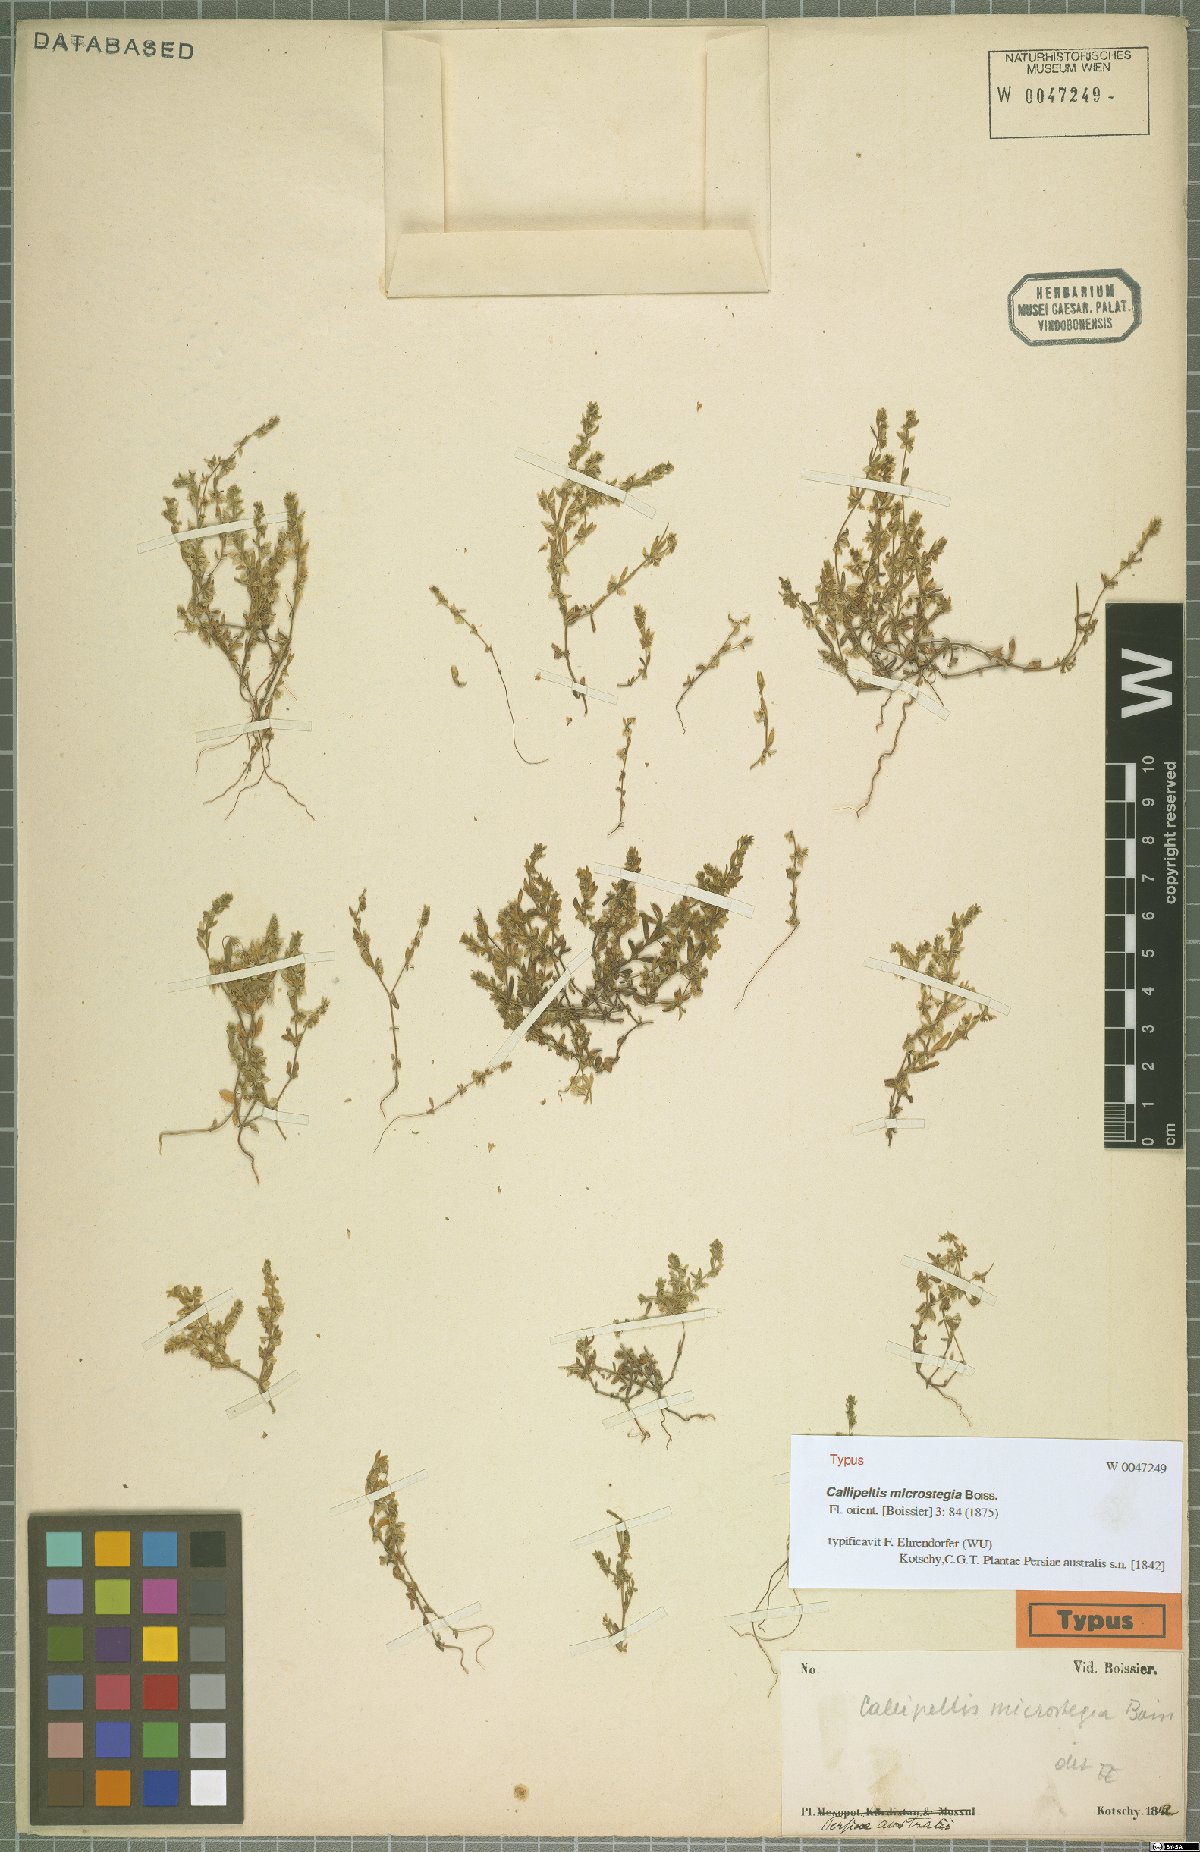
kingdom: Plantae
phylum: Tracheophyta
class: Magnoliopsida
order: Gentianales
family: Rubiaceae
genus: Callipeltis
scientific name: Callipeltis microstegia
